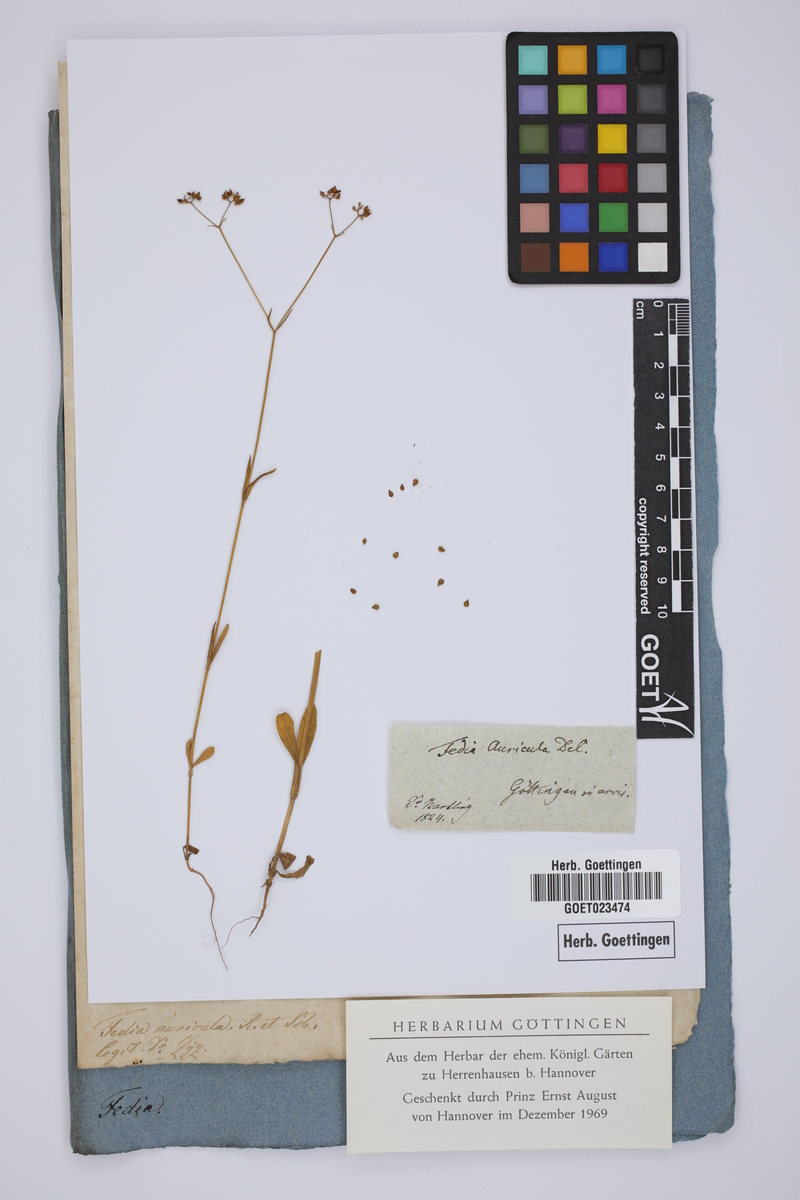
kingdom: Plantae
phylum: Tracheophyta
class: Magnoliopsida
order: Dipsacales
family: Caprifoliaceae
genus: Valerianella
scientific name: Valerianella
